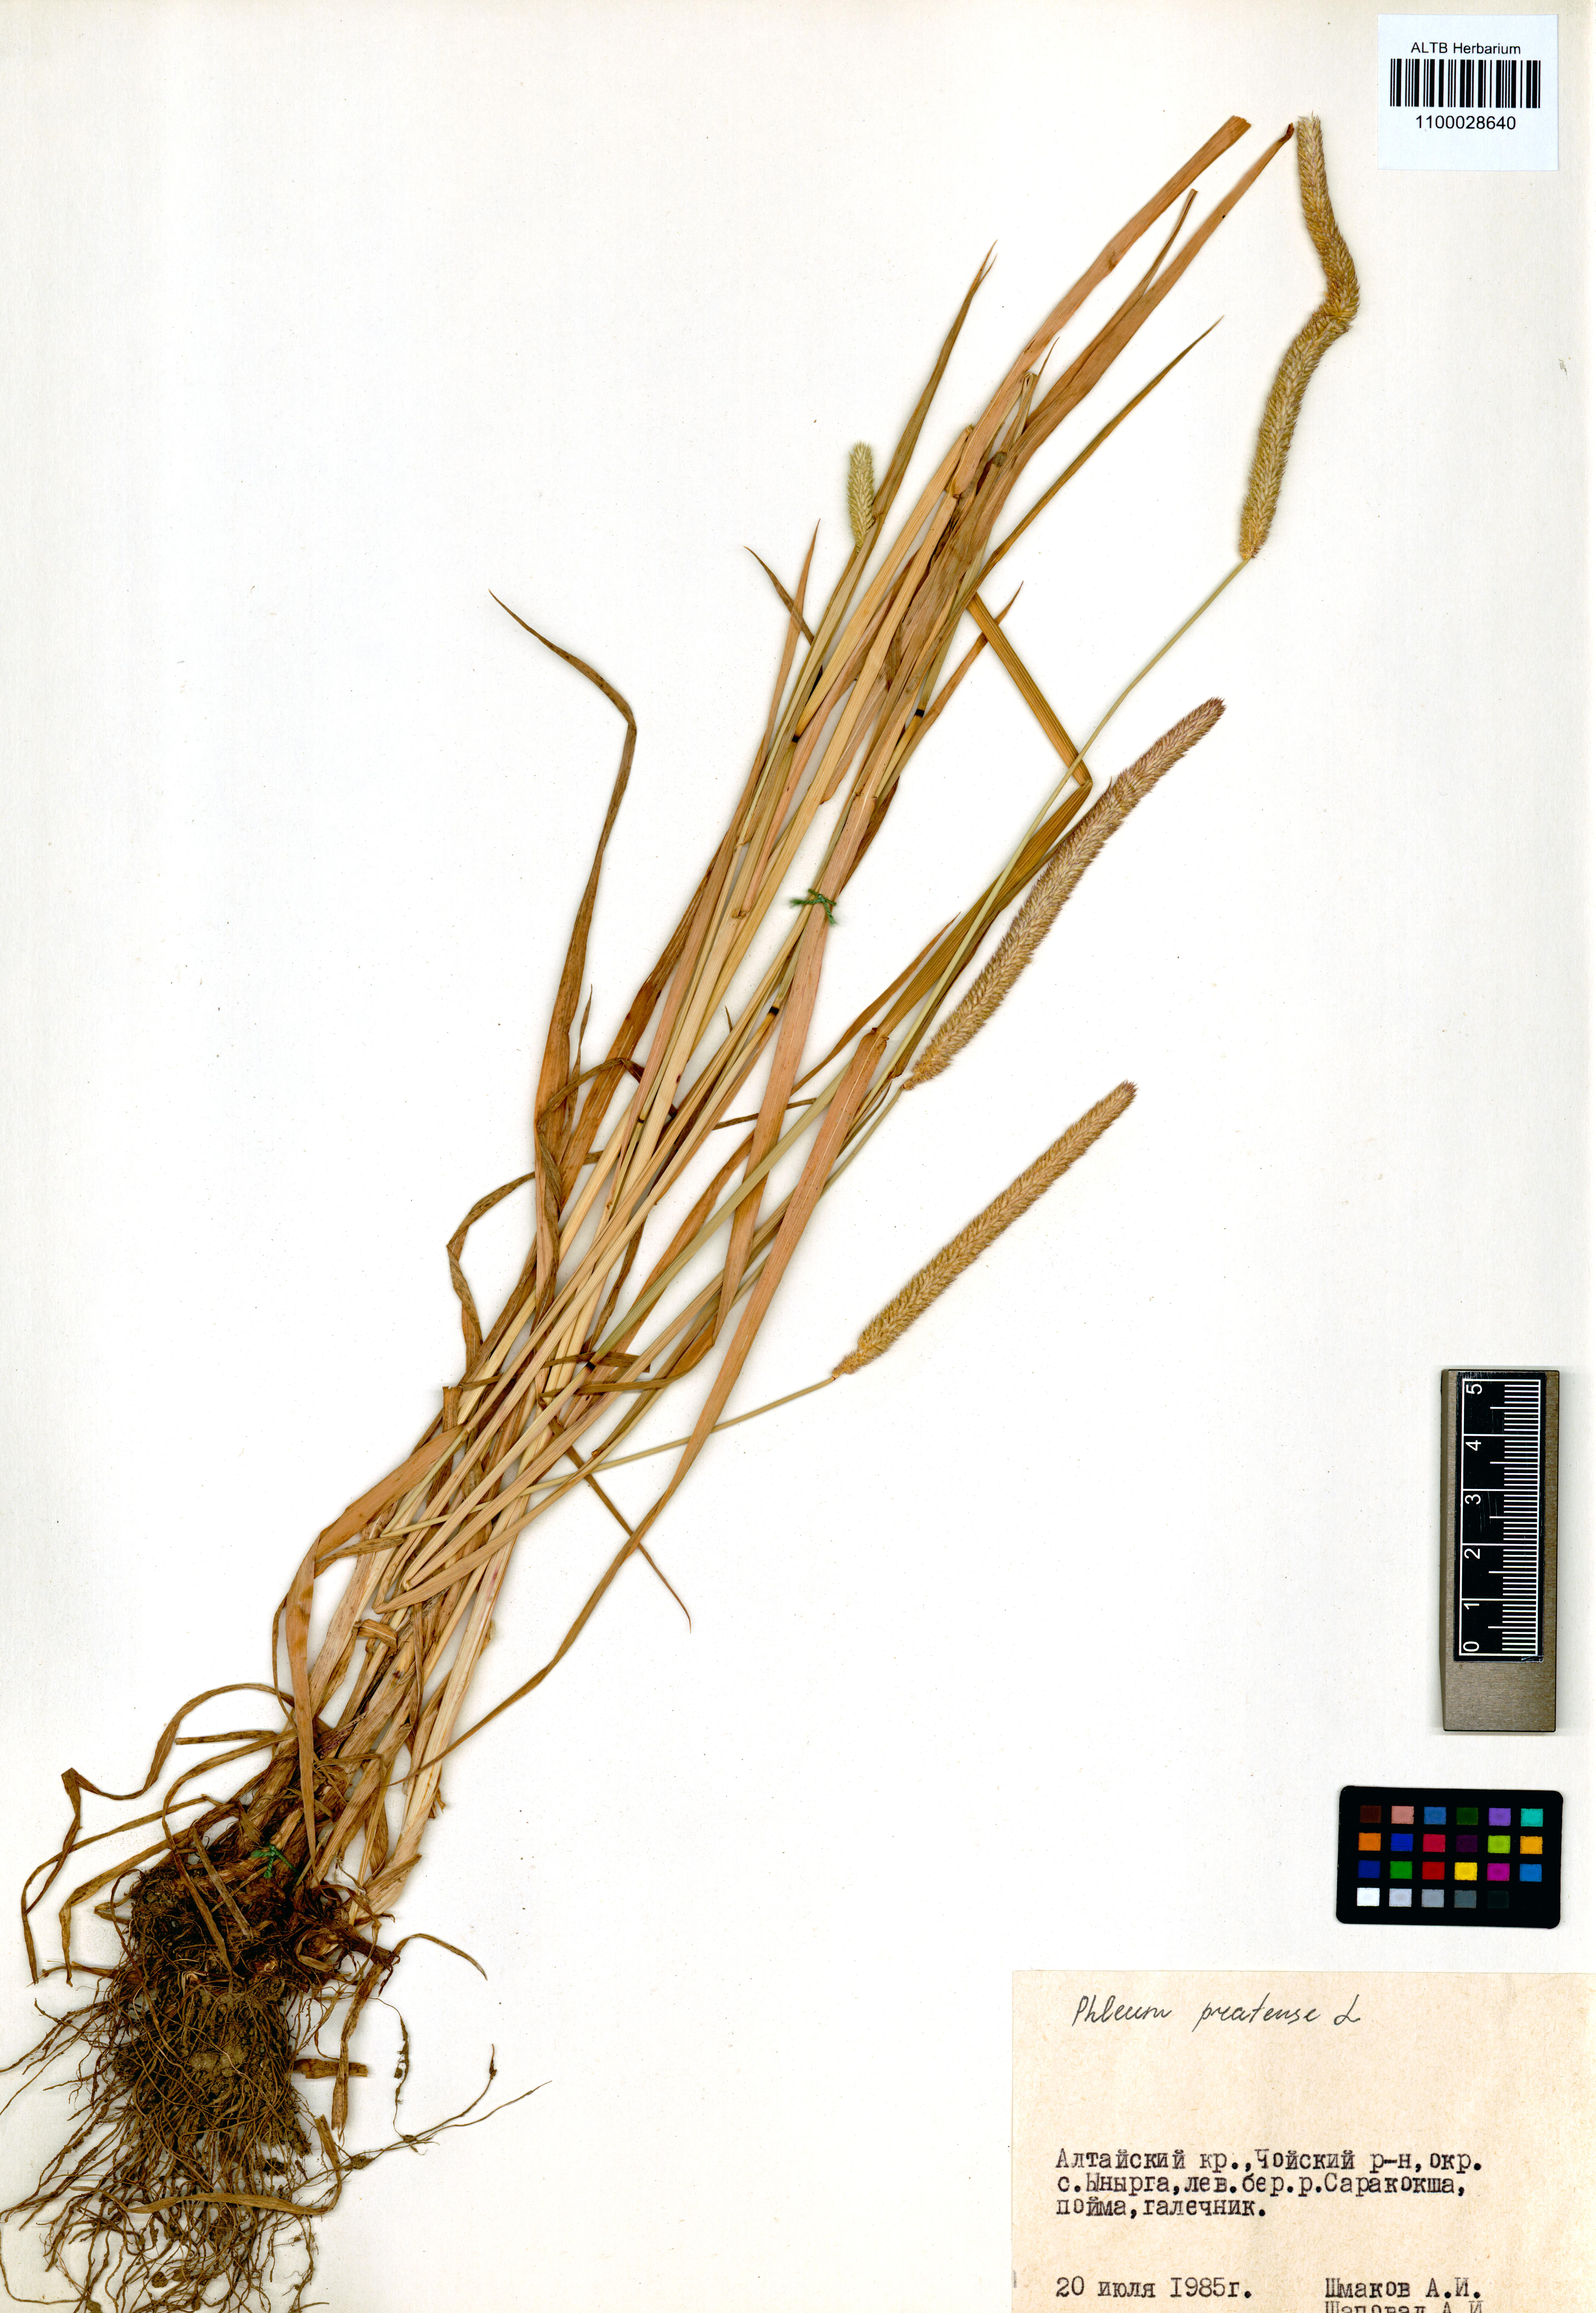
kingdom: Plantae
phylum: Tracheophyta
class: Liliopsida
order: Poales
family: Poaceae
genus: Phleum
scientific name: Phleum pratense
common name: Timothy grass
